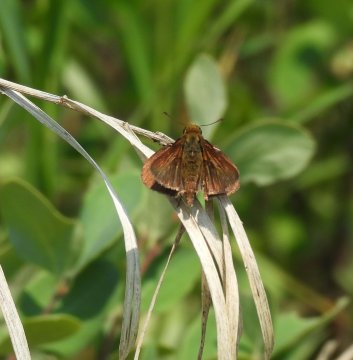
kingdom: Animalia
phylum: Arthropoda
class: Insecta
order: Lepidoptera
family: Hesperiidae
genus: Euphyes
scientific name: Euphyes vestris
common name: Dun Skipper
